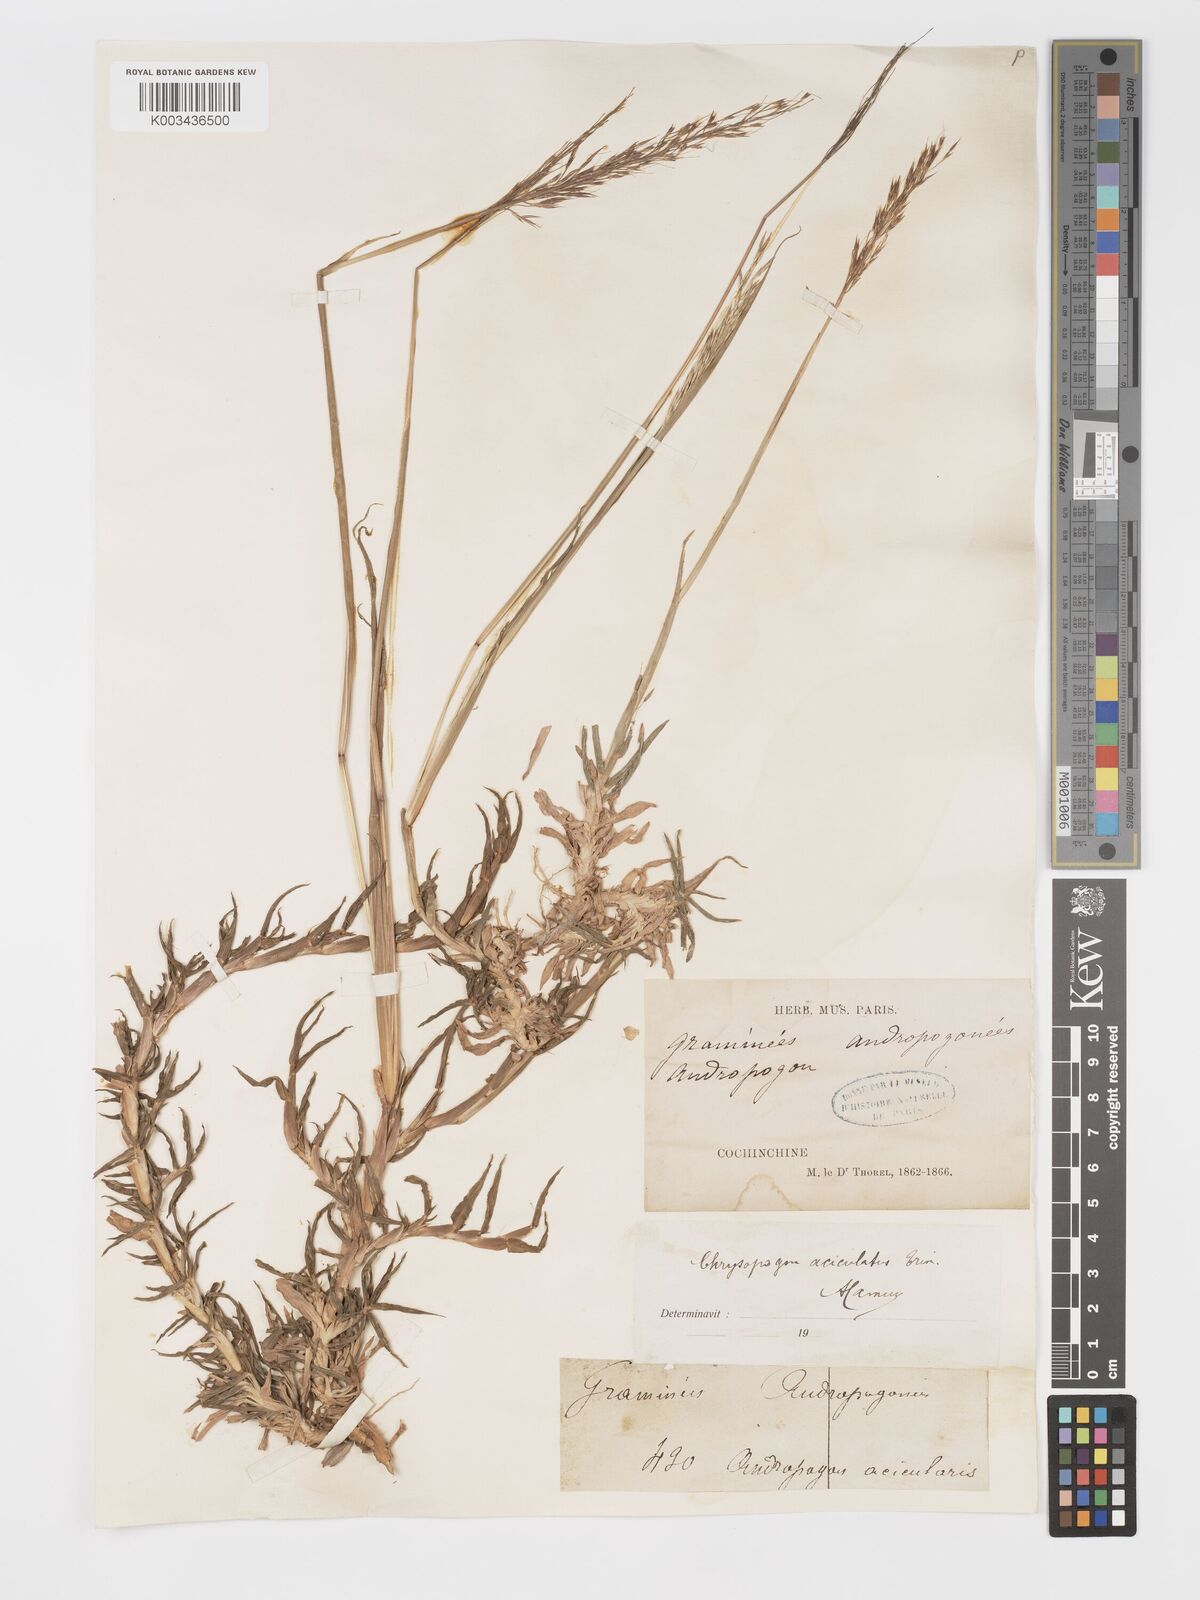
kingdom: Plantae
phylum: Tracheophyta
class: Liliopsida
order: Poales
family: Poaceae
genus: Chrysopogon
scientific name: Chrysopogon aciculatus
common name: Pilipiliula
